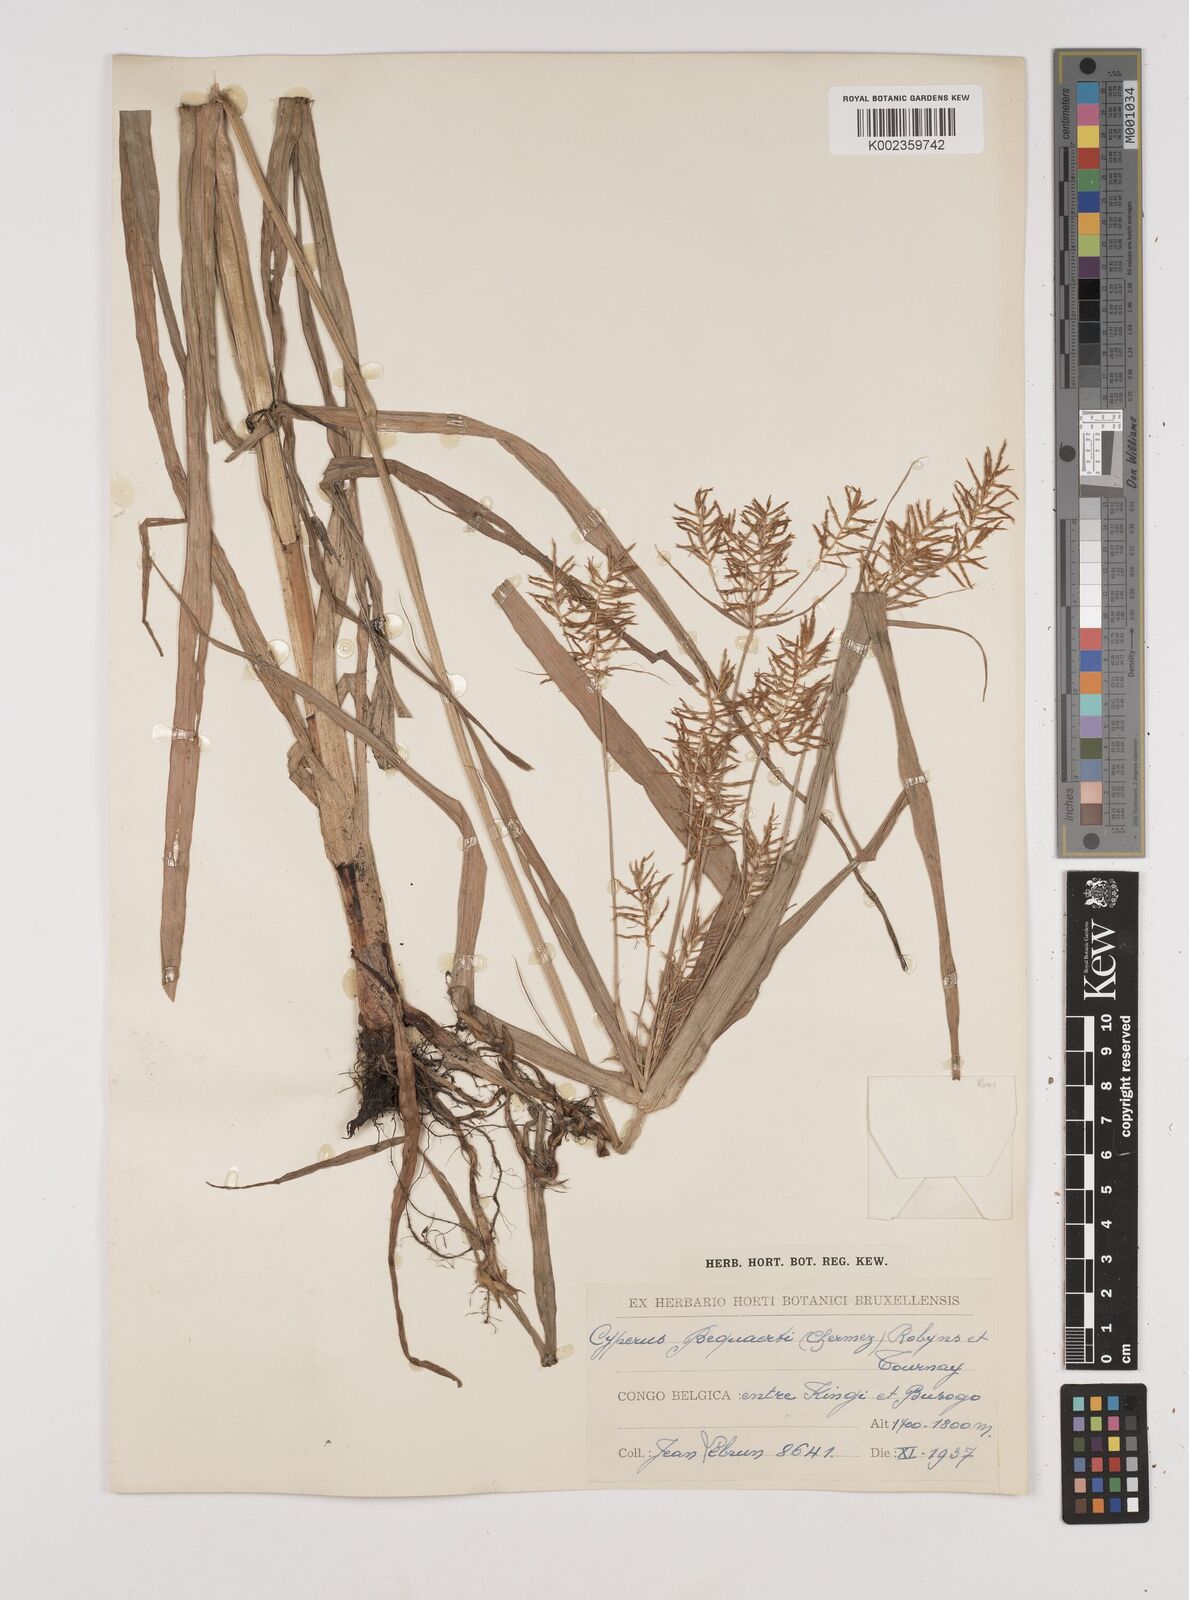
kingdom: Plantae
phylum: Tracheophyta
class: Liliopsida
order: Poales
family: Cyperaceae
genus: Cyperus
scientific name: Cyperus ferrugineoviridis
